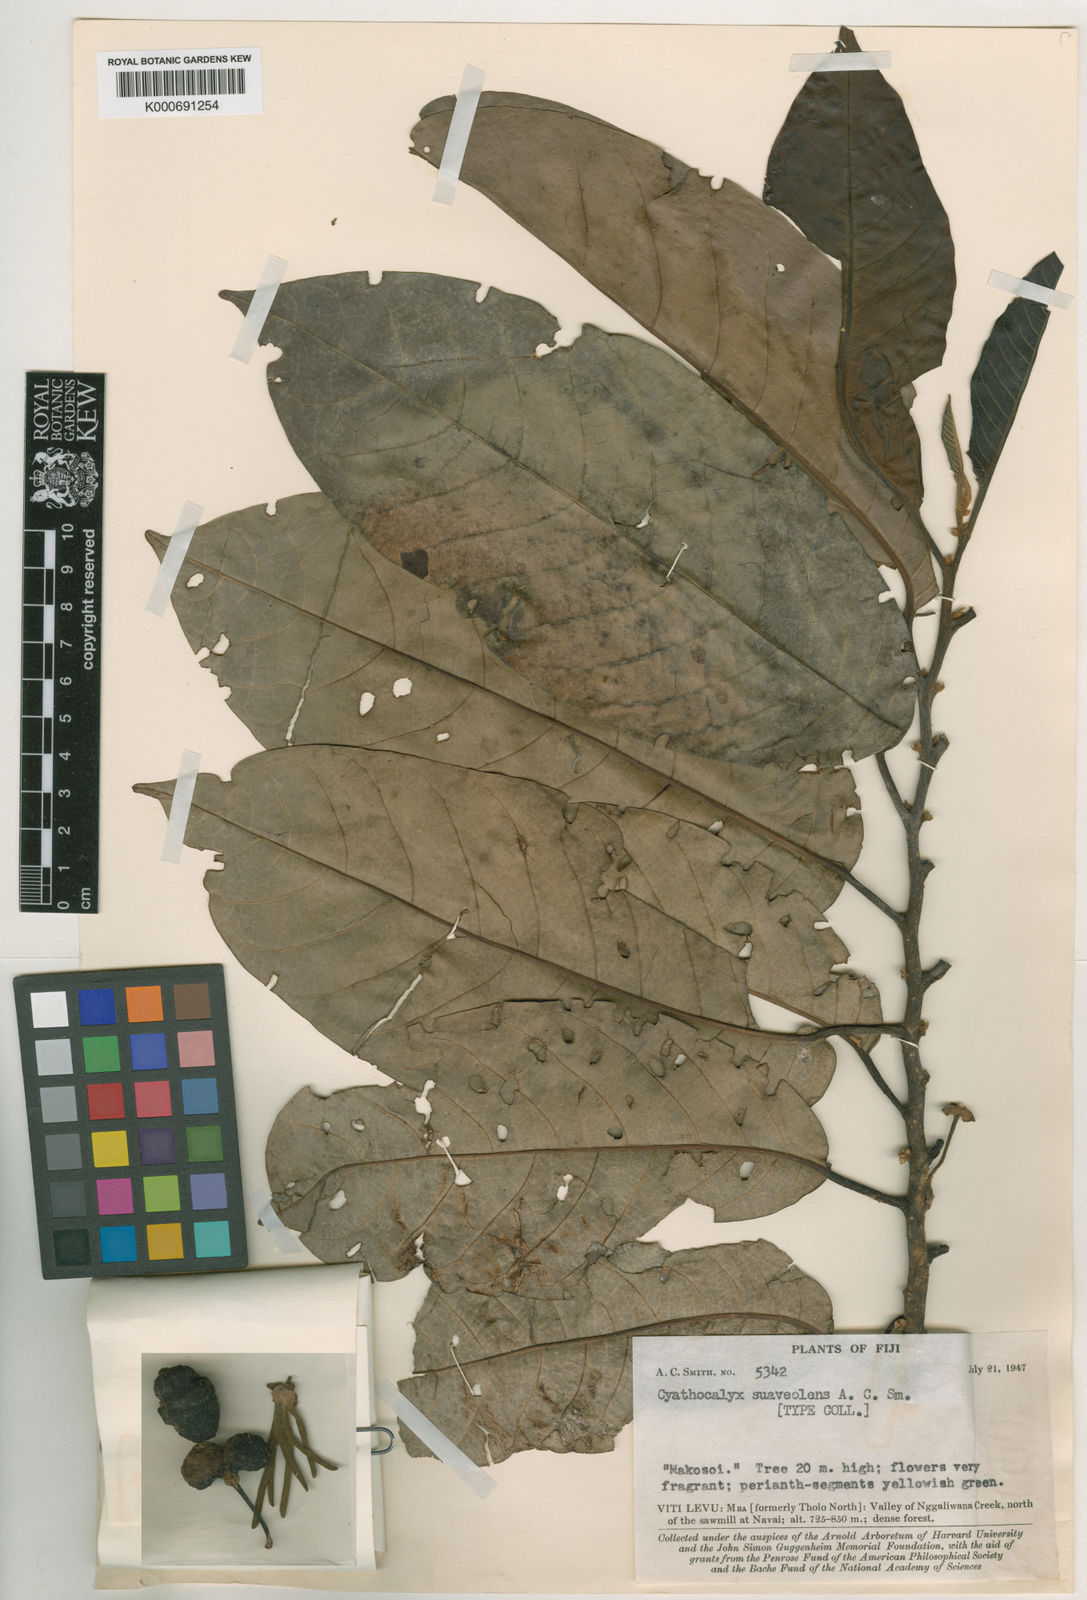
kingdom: Plantae
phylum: Tracheophyta
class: Magnoliopsida
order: Magnoliales
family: Annonaceae
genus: Drepananthus
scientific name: Drepananthus vitiensis
